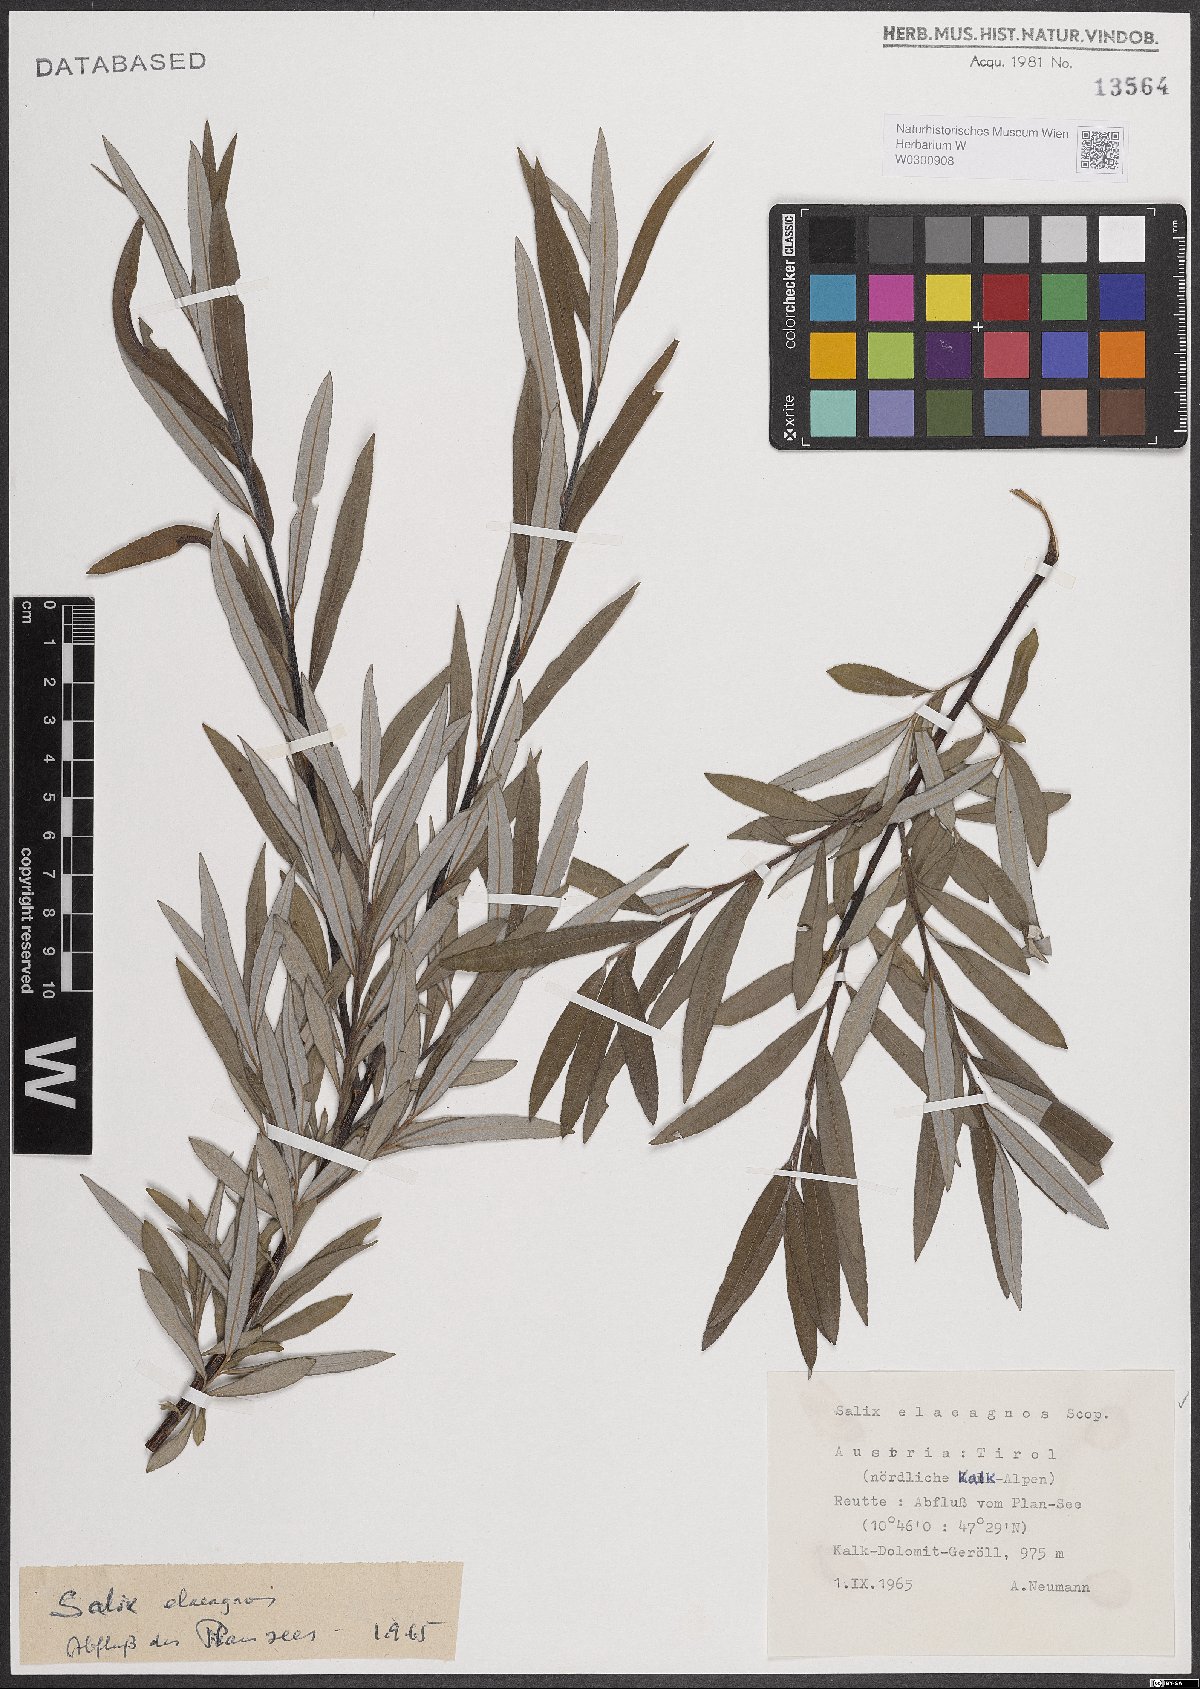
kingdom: Plantae
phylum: Tracheophyta
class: Magnoliopsida
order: Malpighiales
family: Salicaceae
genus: Salix
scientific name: Salix eleagnos
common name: Elaeagnus willow
